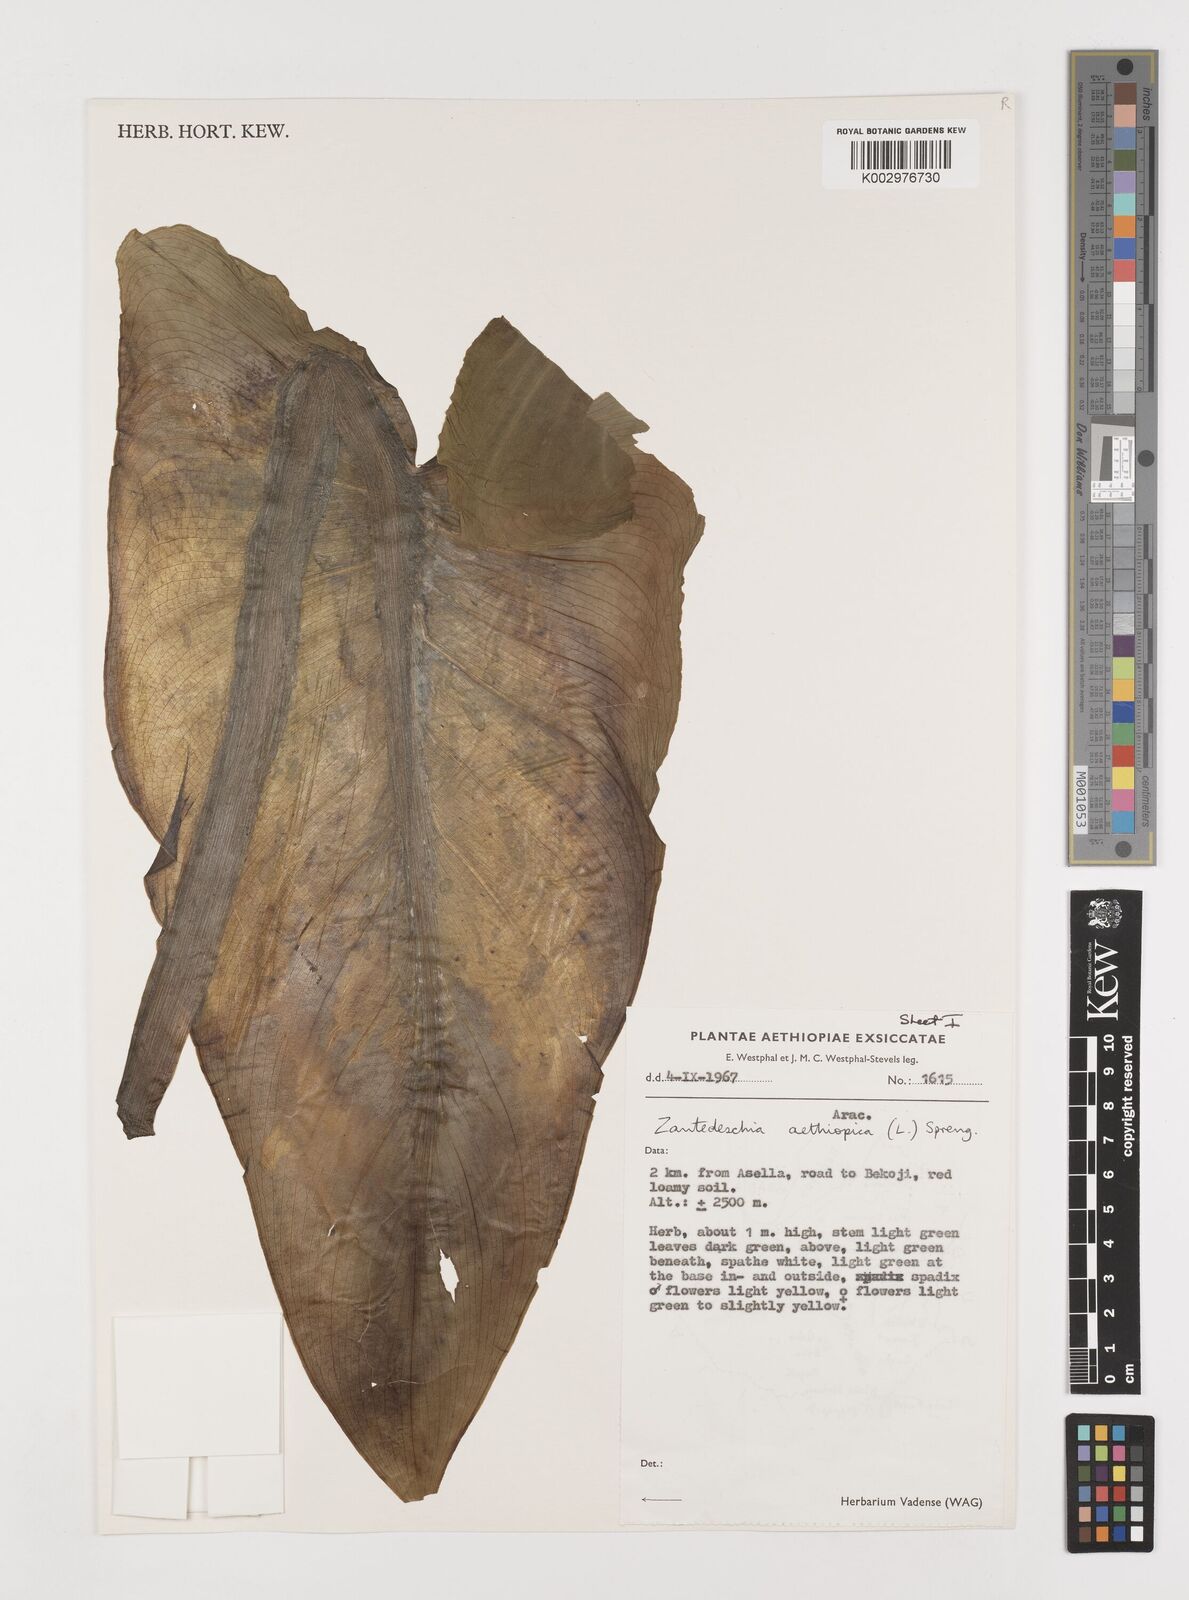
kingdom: Plantae
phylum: Tracheophyta
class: Liliopsida
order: Alismatales
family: Araceae
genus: Zantedeschia
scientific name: Zantedeschia aethiopica
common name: Altar-lily
